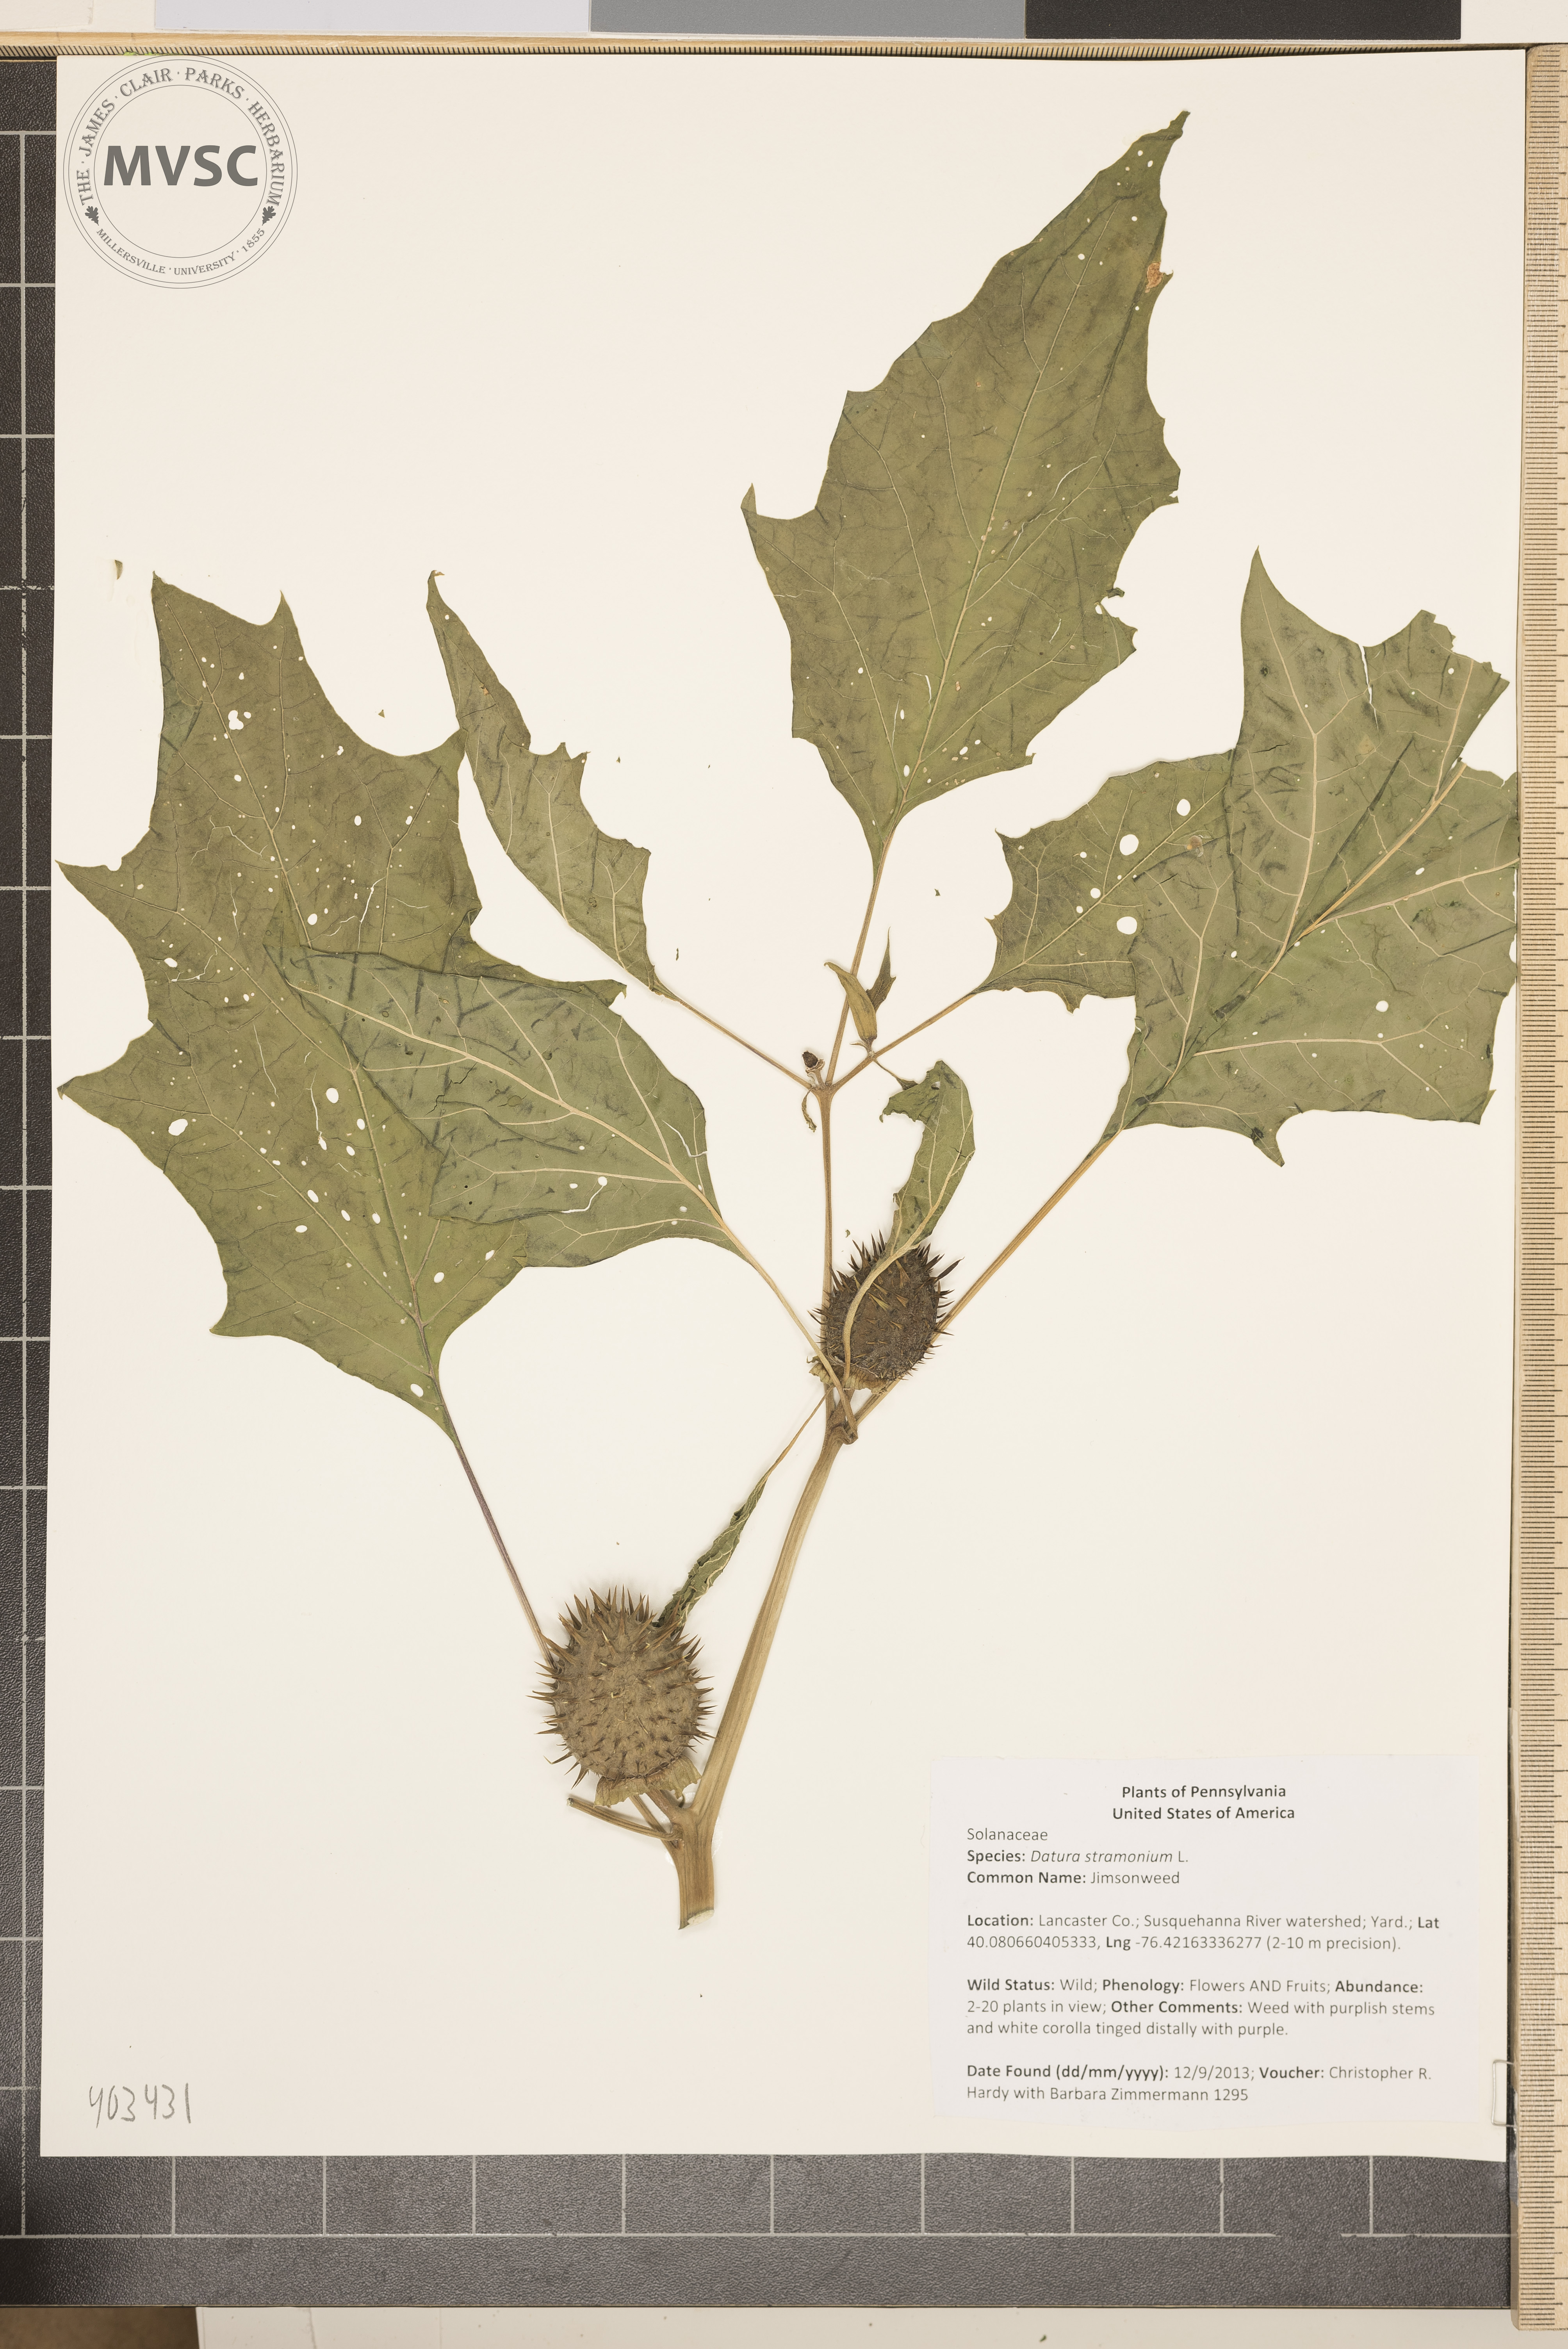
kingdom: Plantae
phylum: Tracheophyta
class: Magnoliopsida
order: Solanales
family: Solanaceae
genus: Datura
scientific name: Datura stramonium
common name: Jimsonweed
